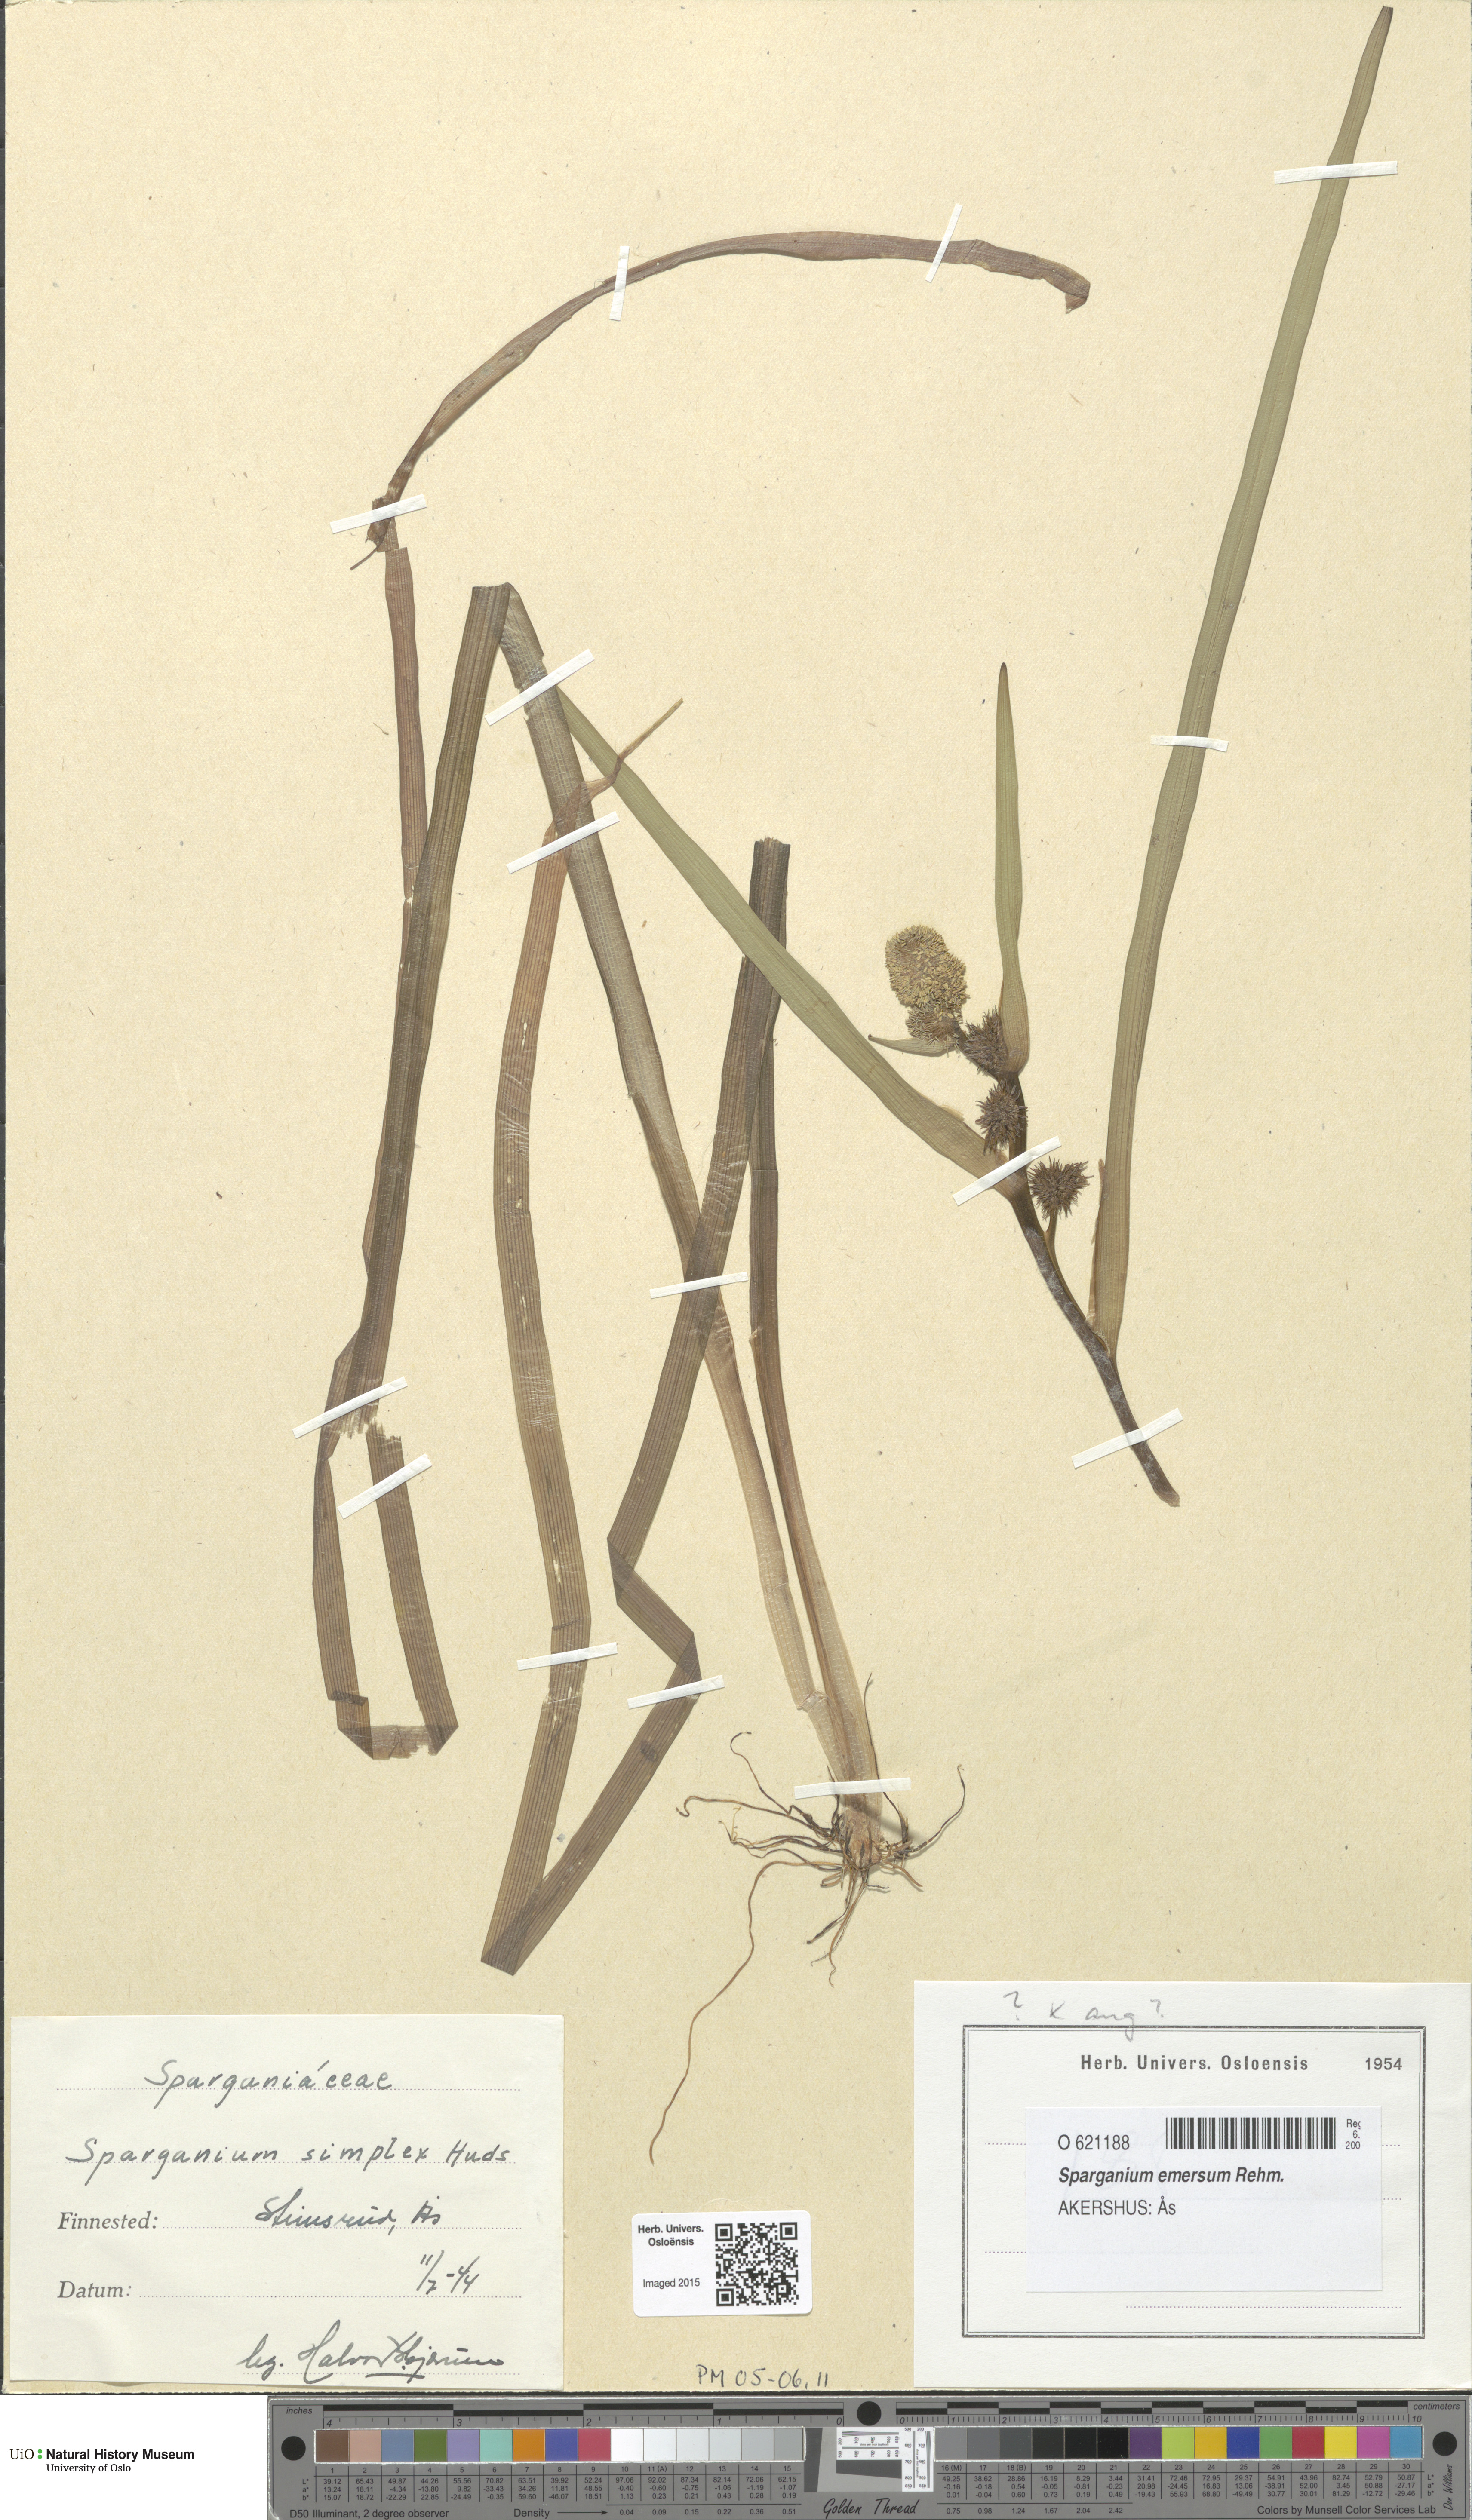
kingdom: Plantae
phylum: Tracheophyta
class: Liliopsida
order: Poales
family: Typhaceae
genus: Sparganium
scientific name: Sparganium emersum
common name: Unbranched bur-reed
